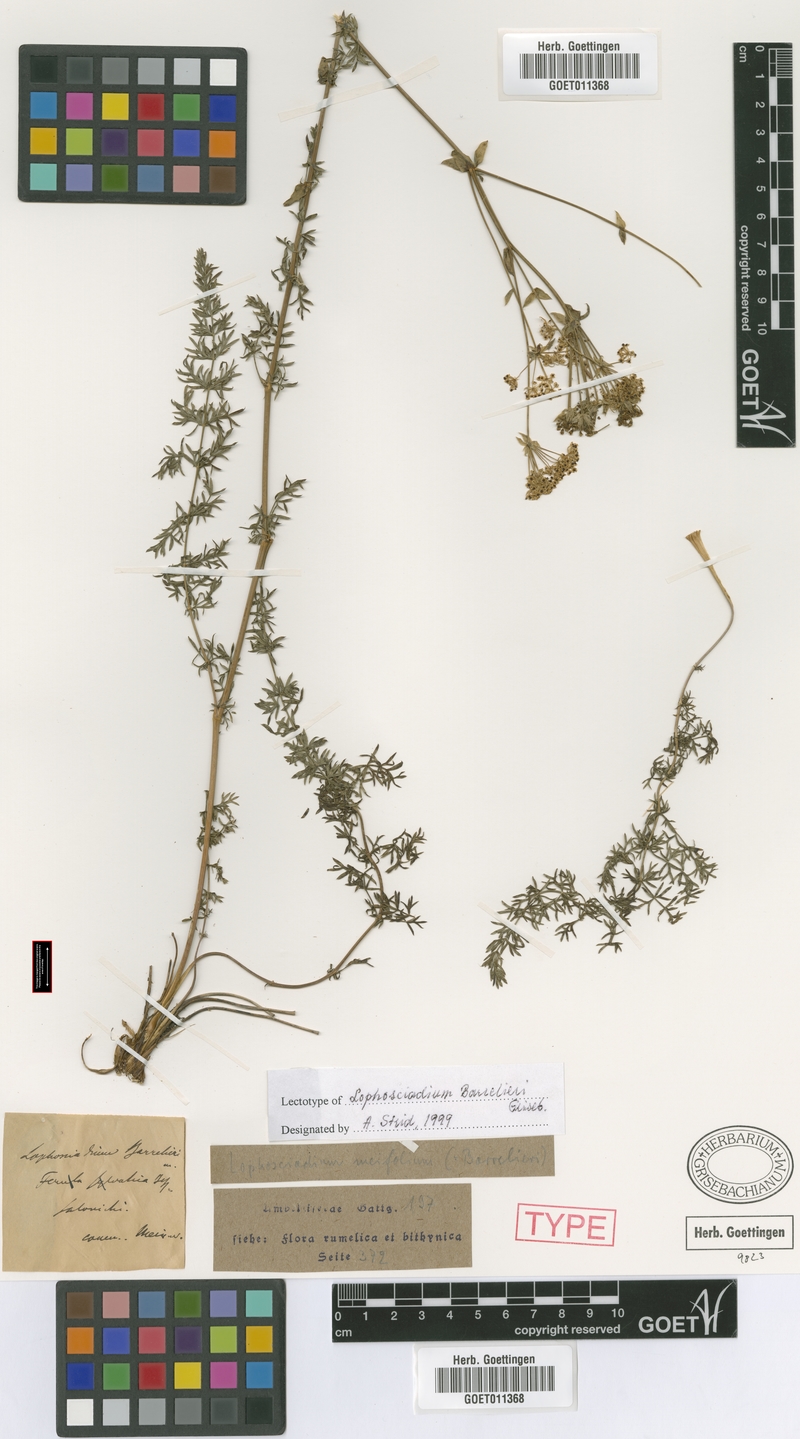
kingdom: Plantae
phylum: Tracheophyta
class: Magnoliopsida
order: Apiales
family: Apiaceae
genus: Ferulago
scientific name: Ferulago sylvatica
